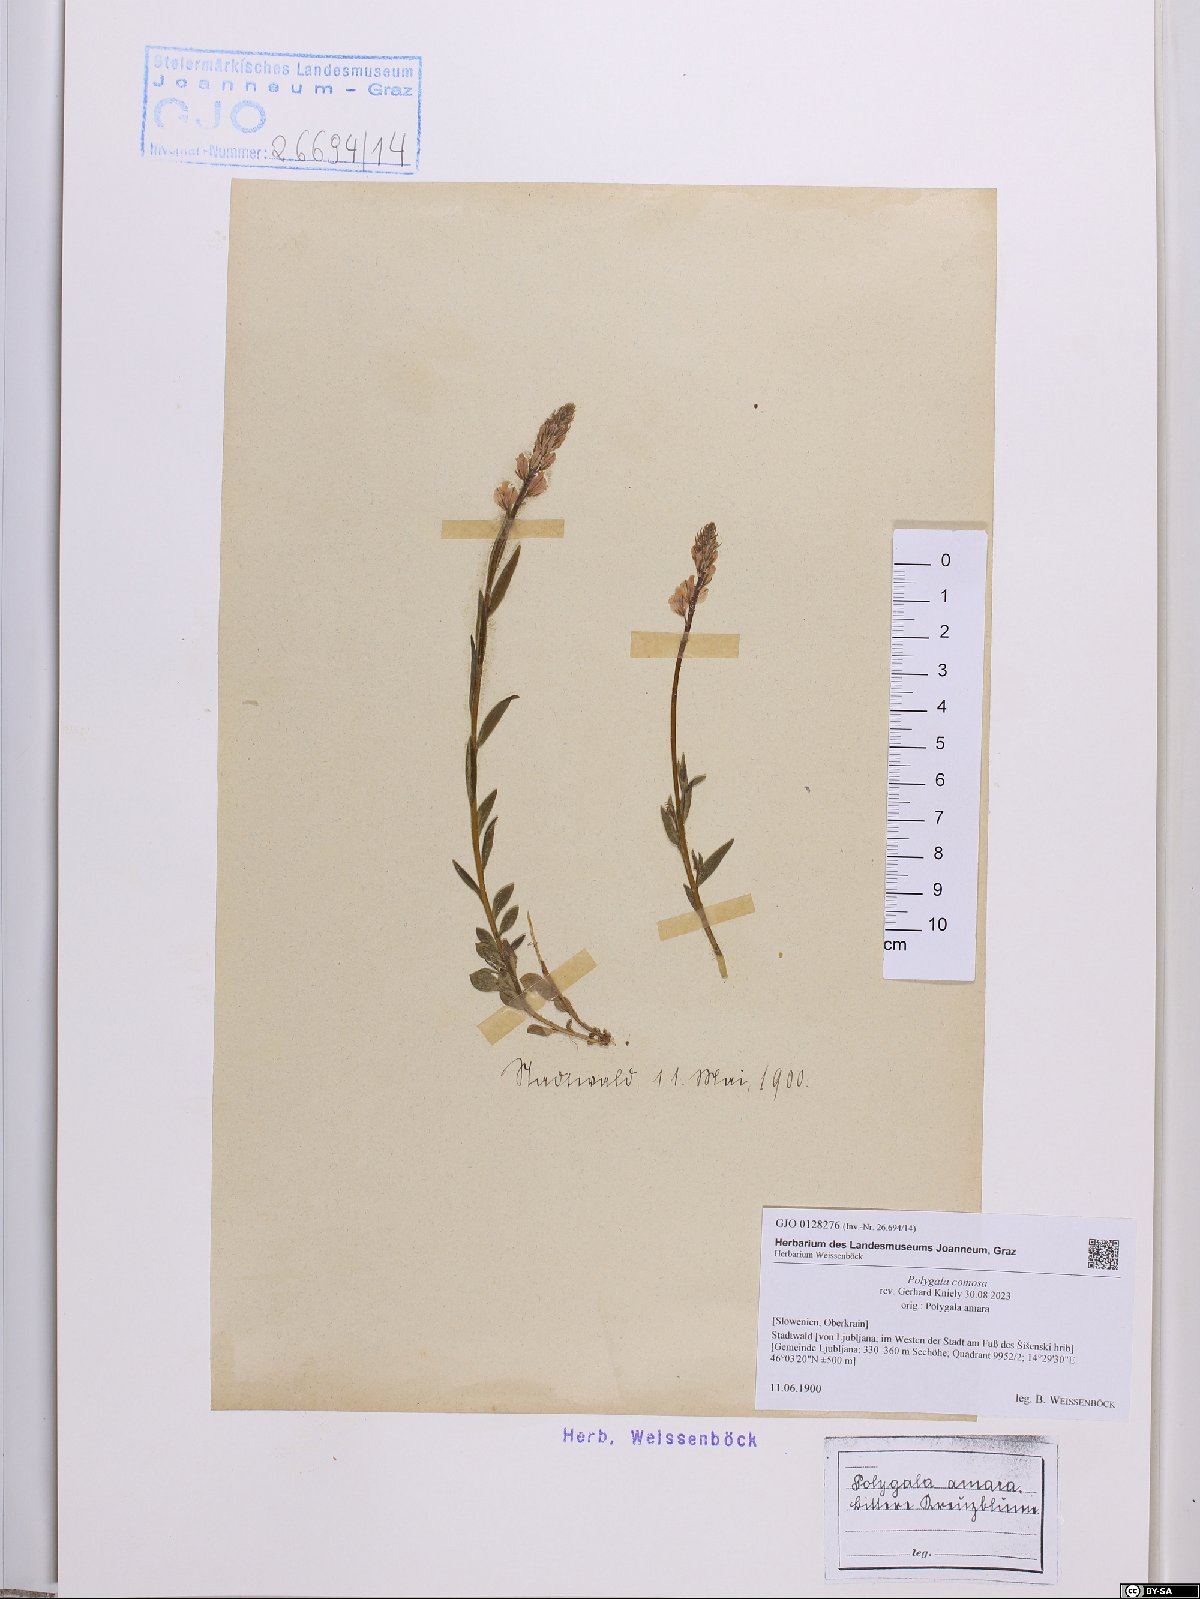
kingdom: Plantae
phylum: Tracheophyta
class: Magnoliopsida
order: Fabales
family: Polygalaceae
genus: Polygala
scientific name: Polygala comosa
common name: Tufted milkwort
